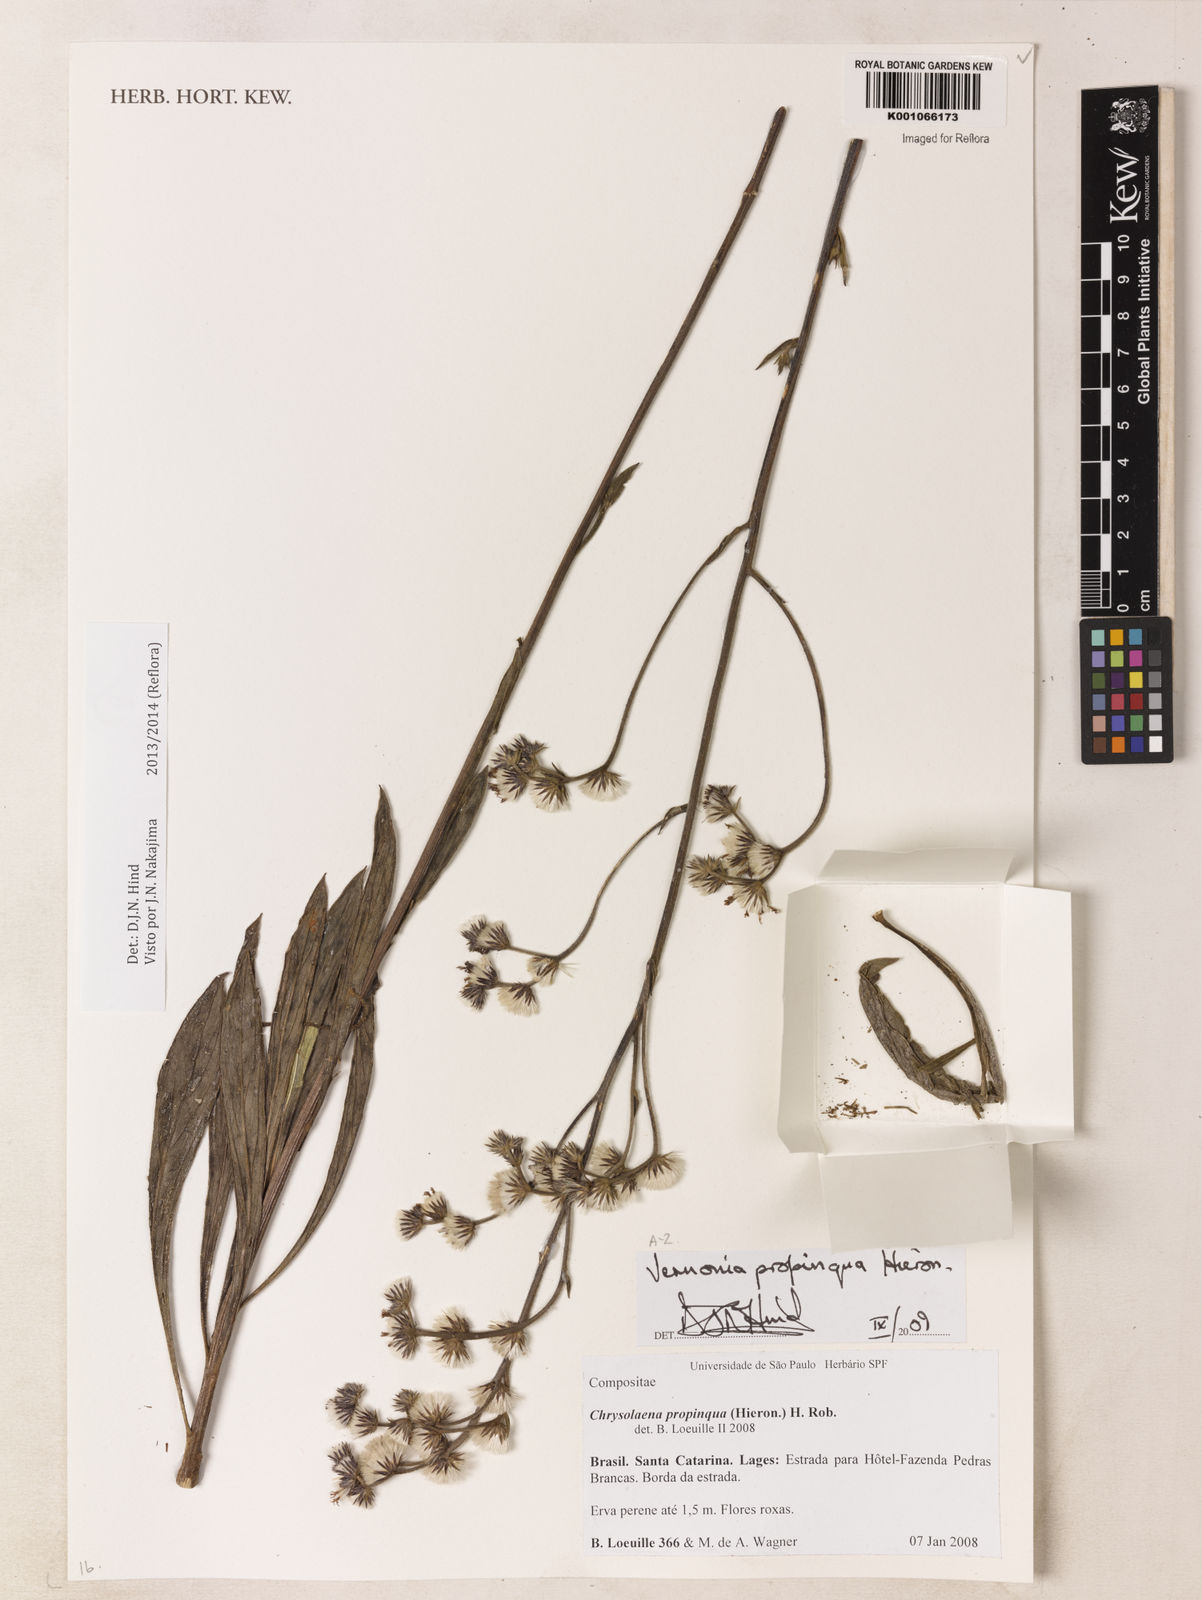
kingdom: Plantae
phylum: Tracheophyta
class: Magnoliopsida
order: Asterales
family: Asteraceae
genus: Chrysolaena
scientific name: Chrysolaena propinqua
